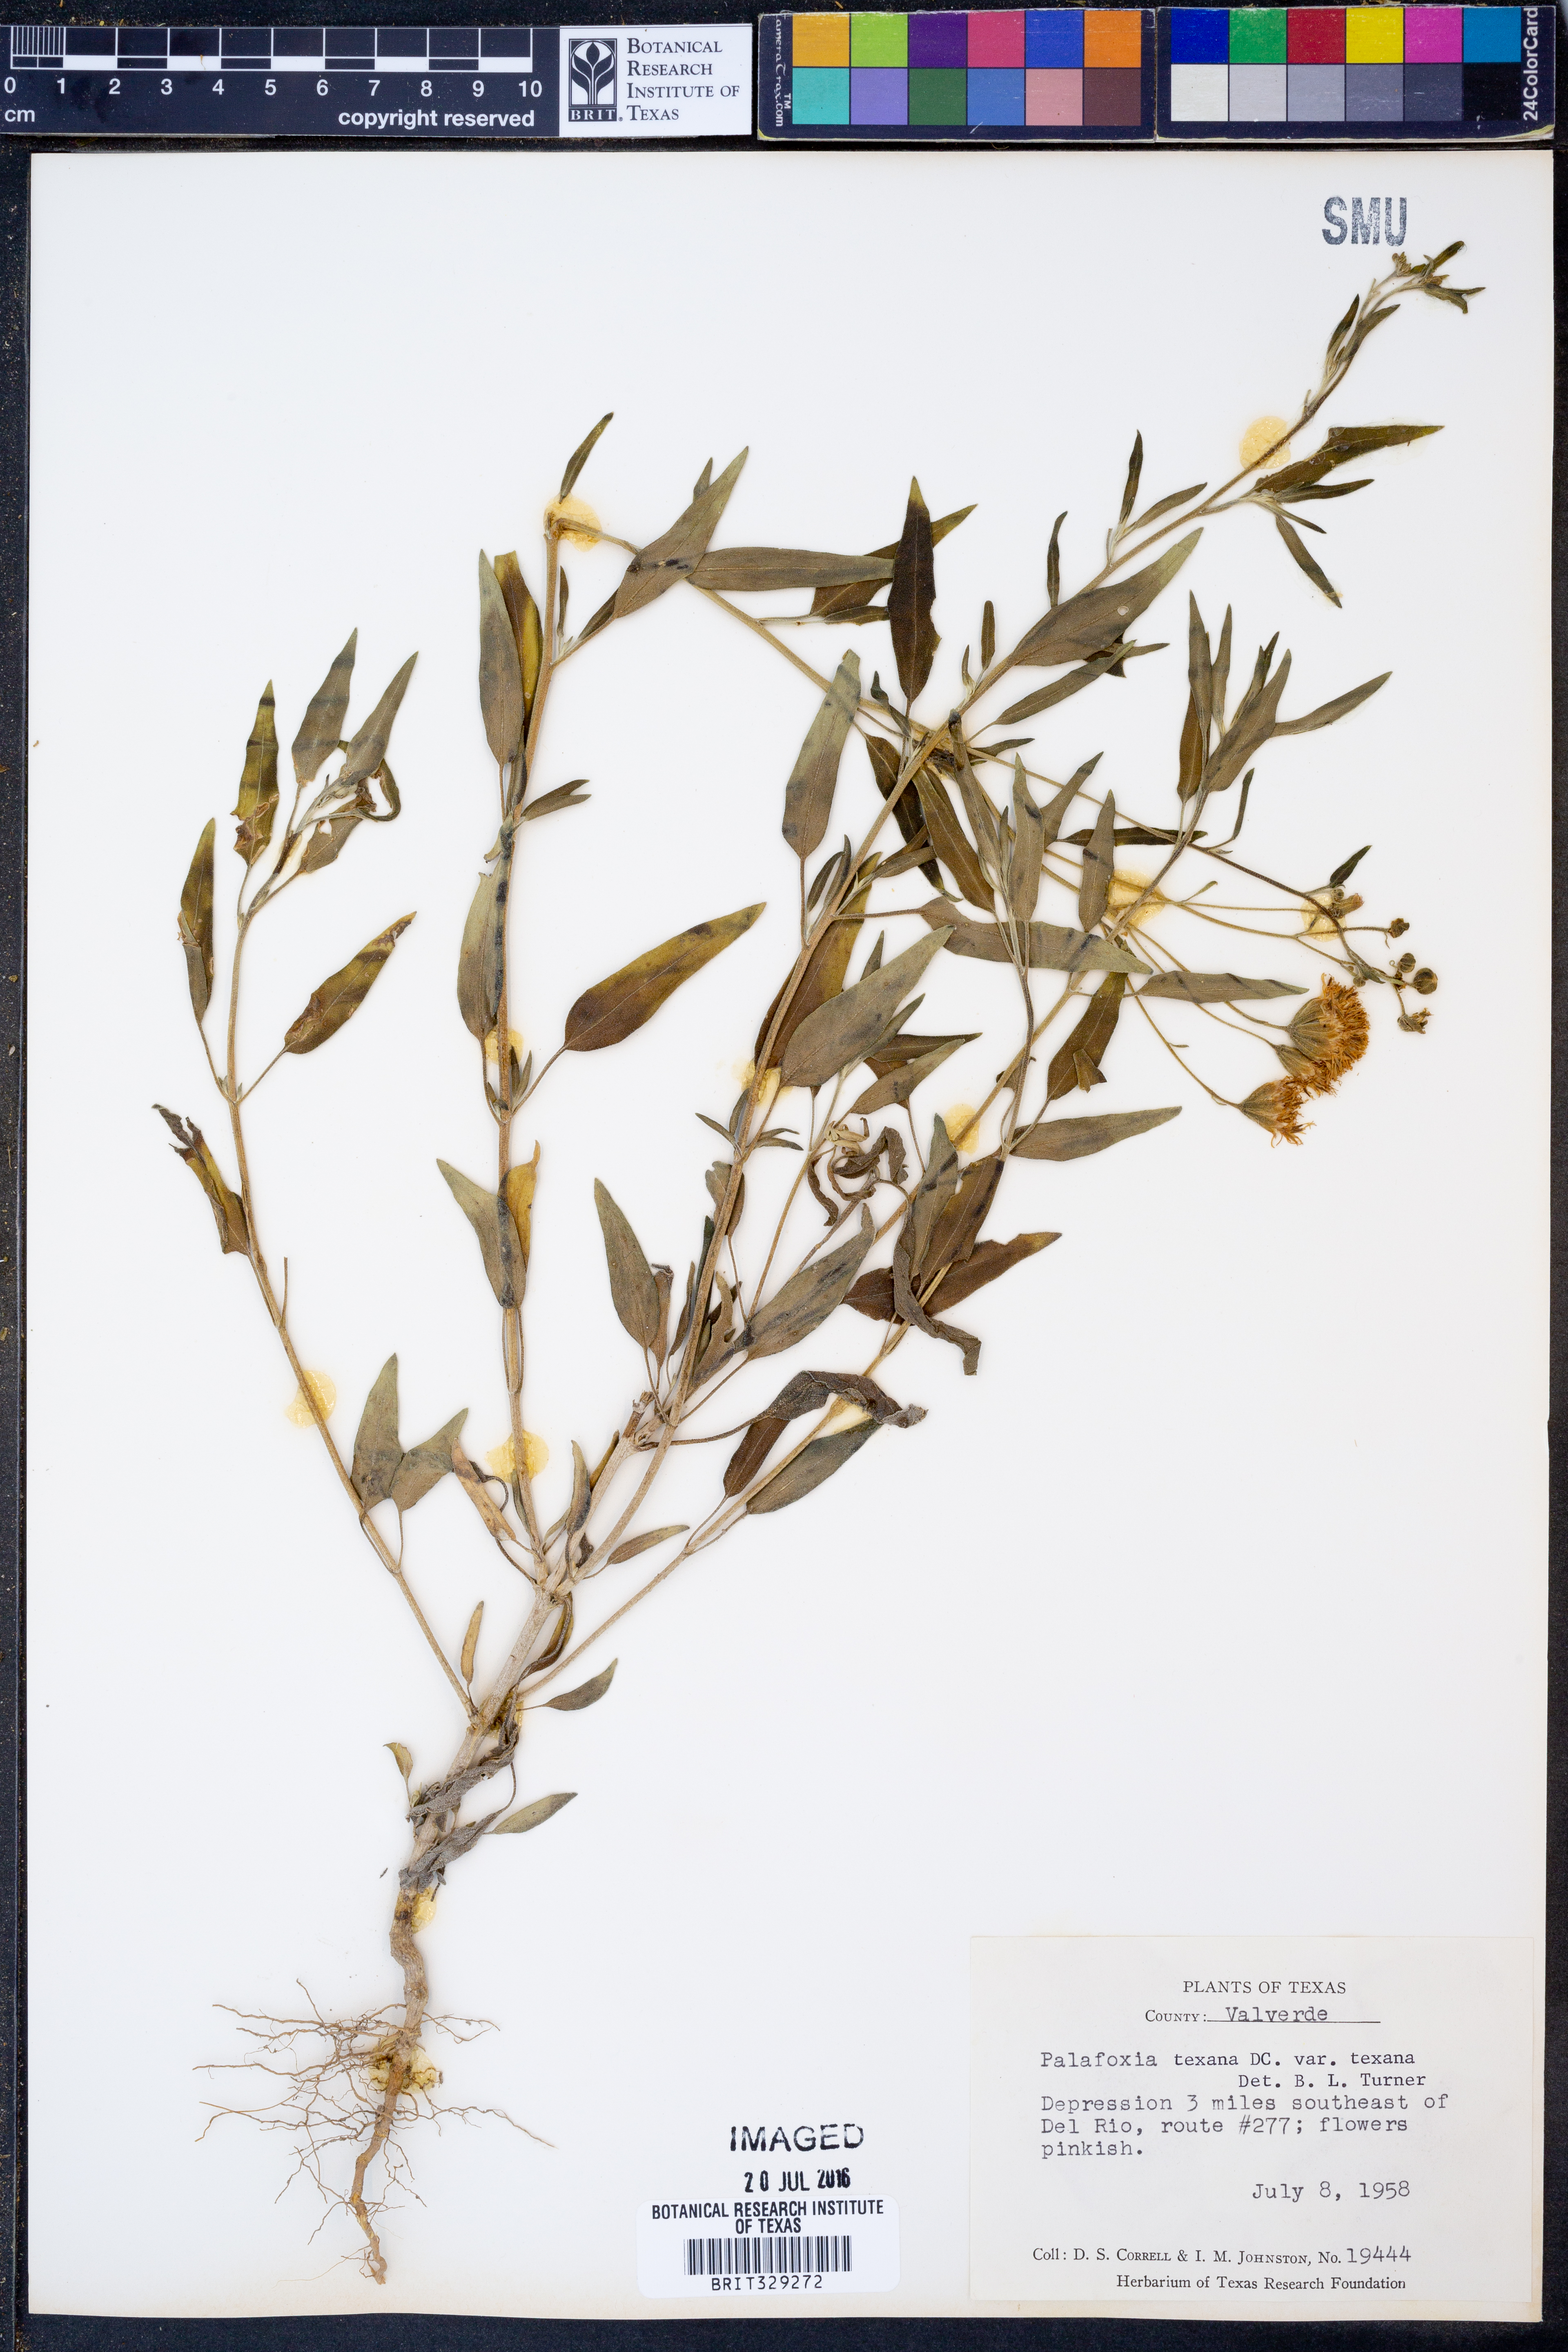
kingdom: Plantae
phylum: Tracheophyta
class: Magnoliopsida
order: Asterales
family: Asteraceae
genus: Palafoxia
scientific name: Palafoxia texana
